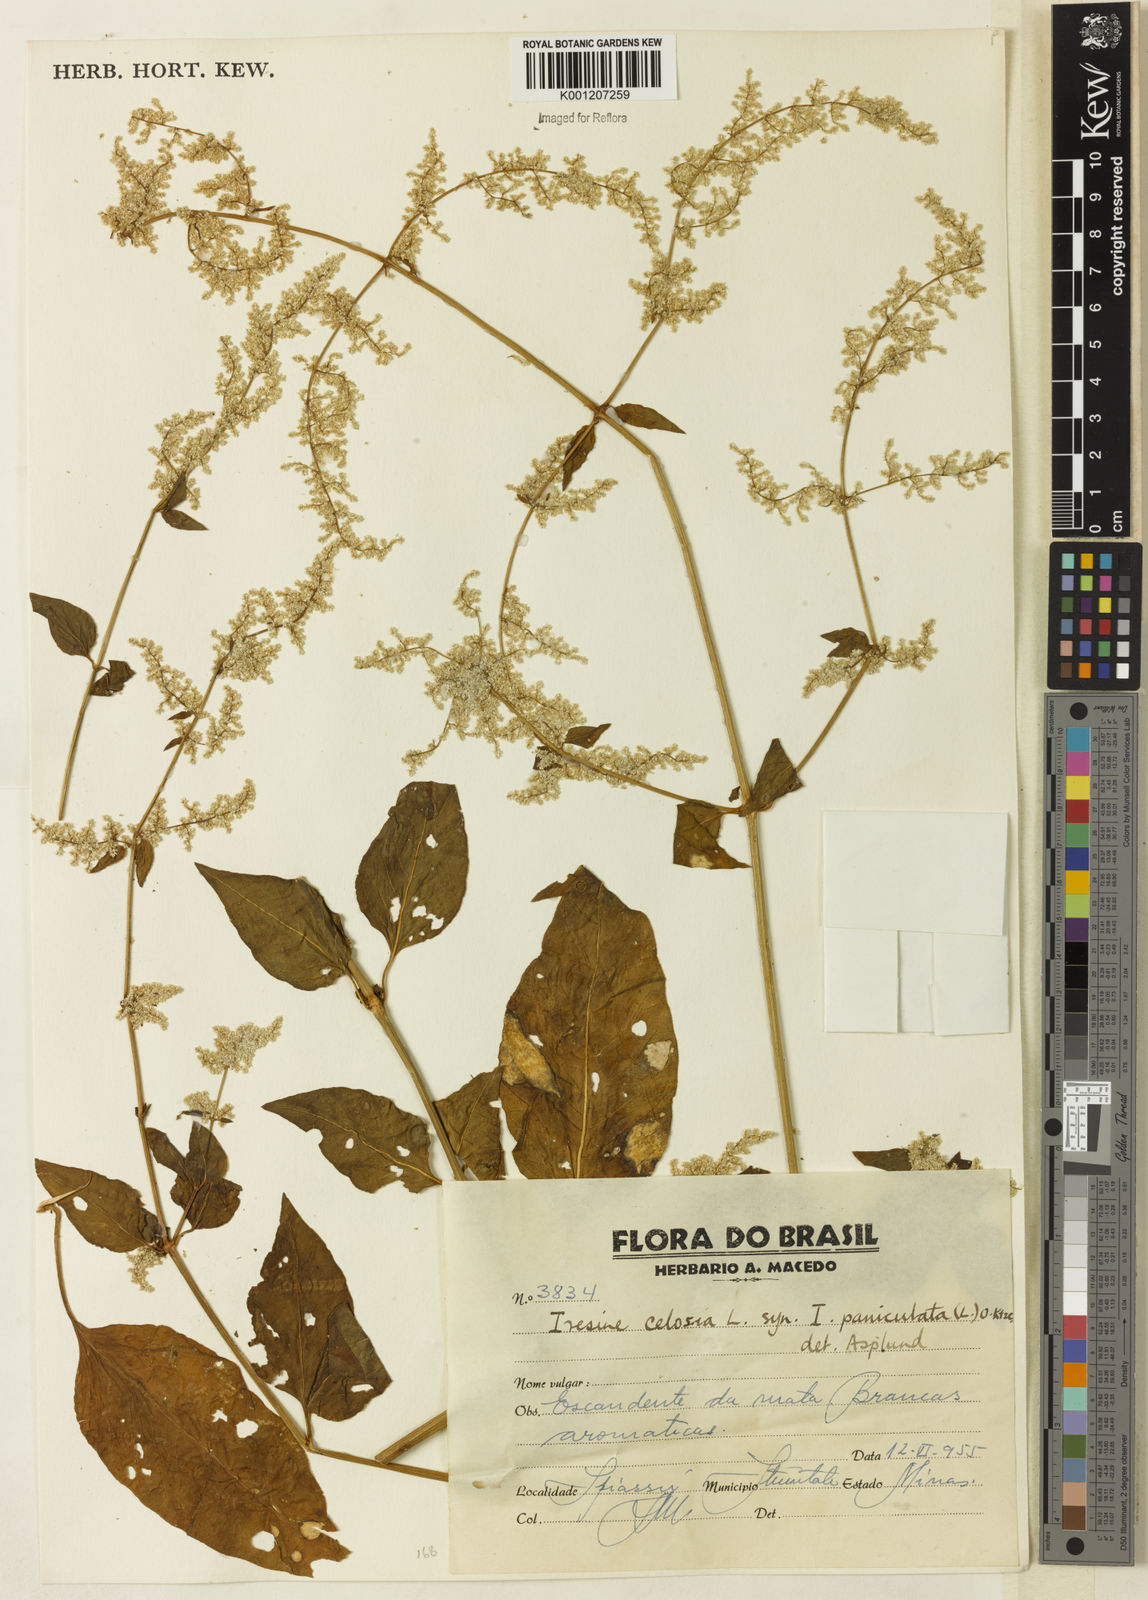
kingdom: Plantae
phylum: Tracheophyta
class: Magnoliopsida
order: Caryophyllales
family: Amaranthaceae
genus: Iresine
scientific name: Iresine rhizomatosa
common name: Juda's-bush
